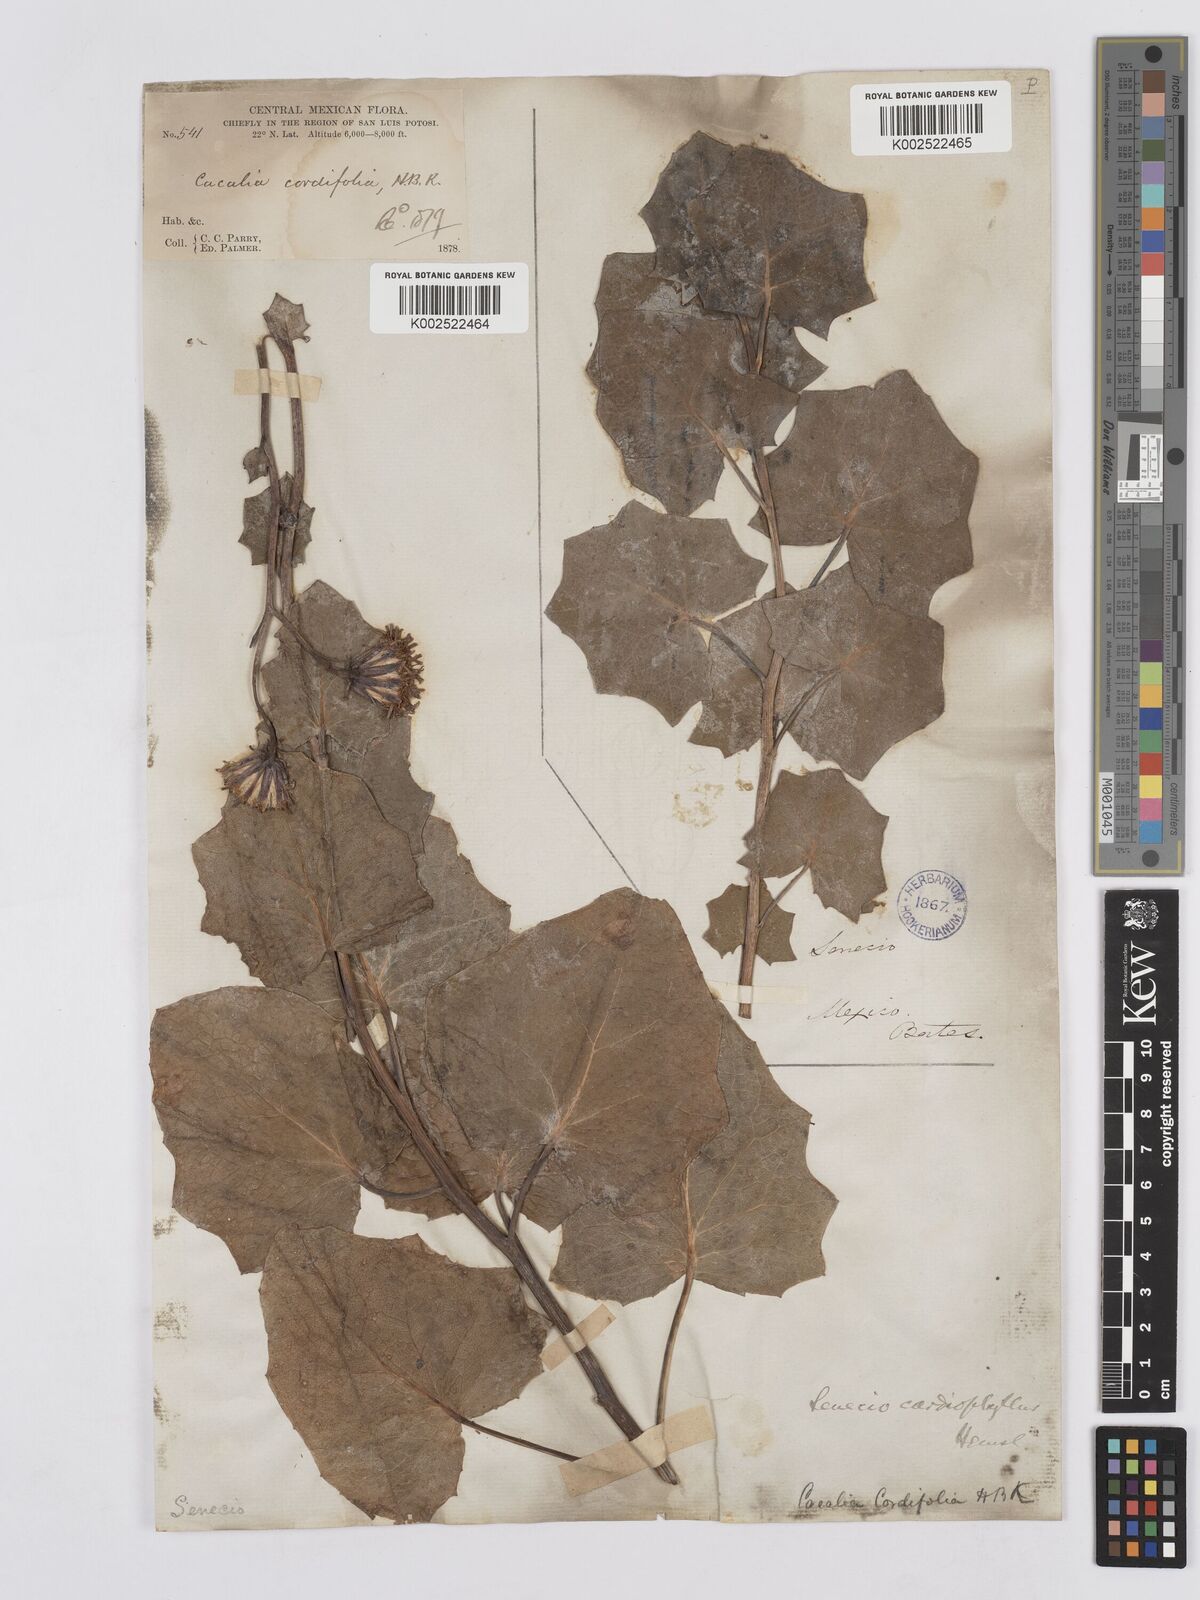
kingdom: Plantae
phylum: Tracheophyta
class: Magnoliopsida
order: Asterales
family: Asteraceae
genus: Roldana
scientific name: Roldana sessilifolia
